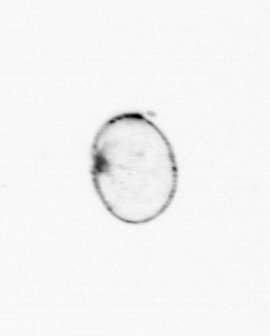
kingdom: Chromista
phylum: Myzozoa
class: Dinophyceae
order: Noctilucales
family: Noctilucaceae
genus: Noctiluca
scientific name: Noctiluca scintillans
